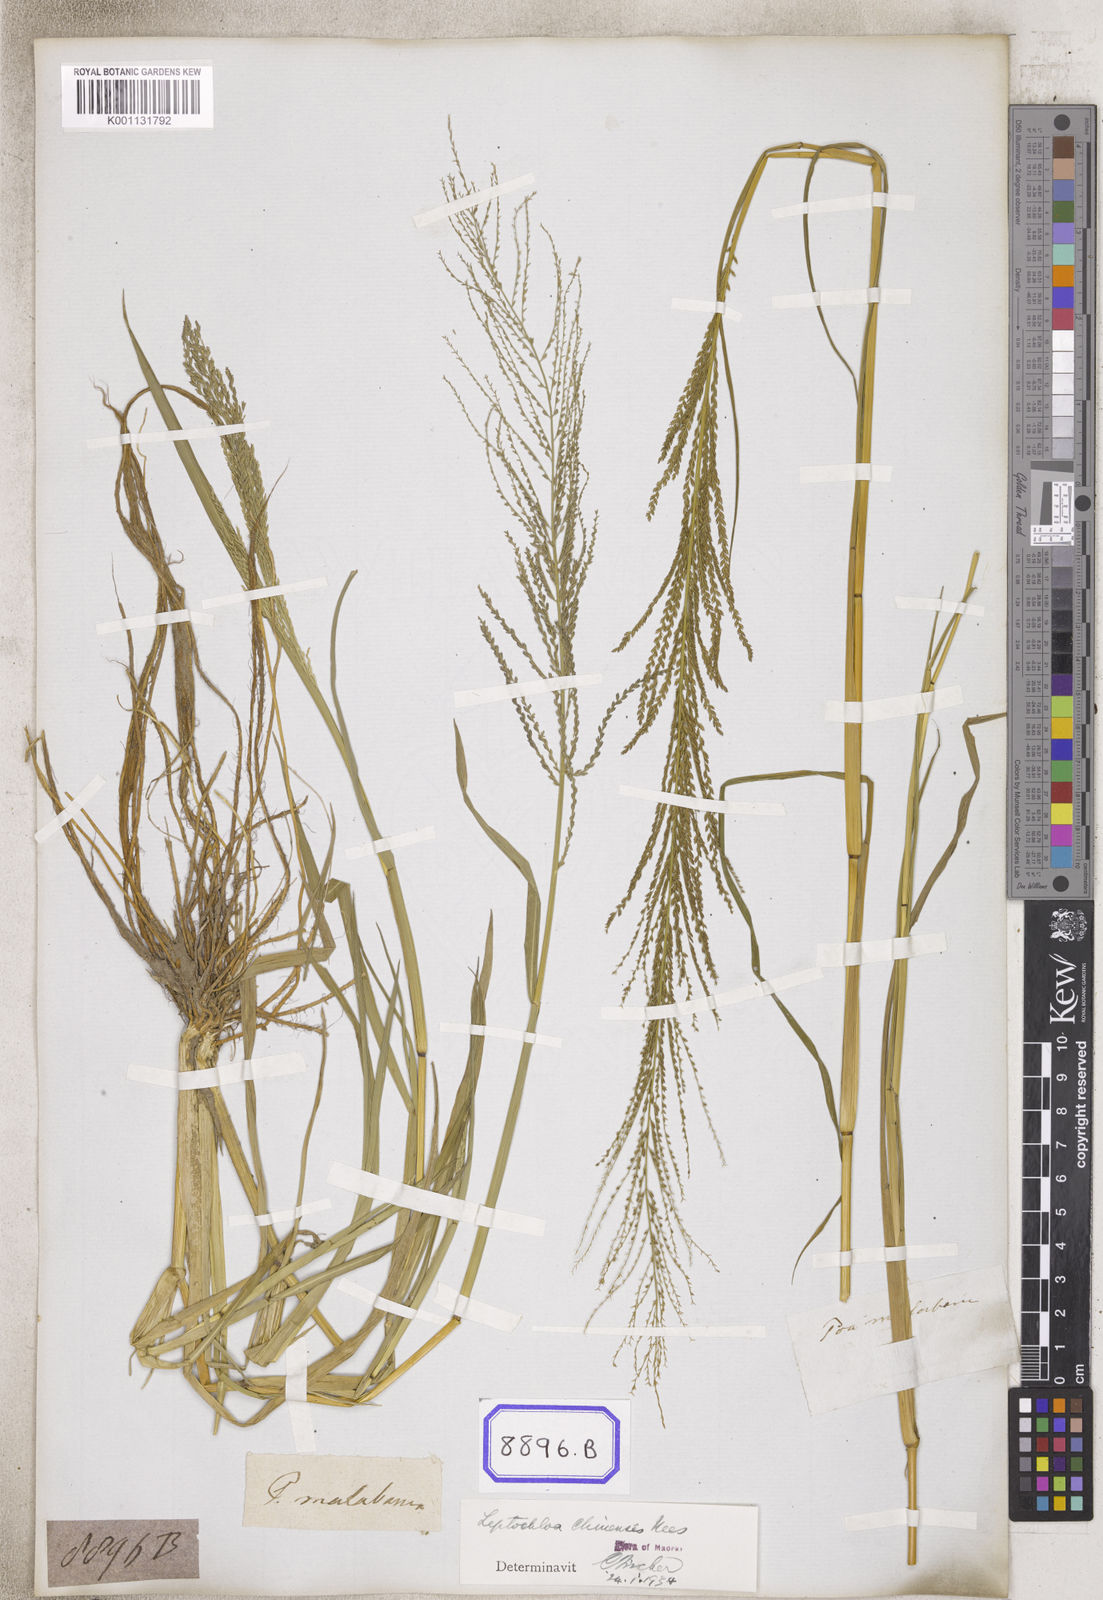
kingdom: Plantae
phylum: Tracheophyta
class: Liliopsida
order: Poales
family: Poaceae
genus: Leptochloa
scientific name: Leptochloa chinensis
